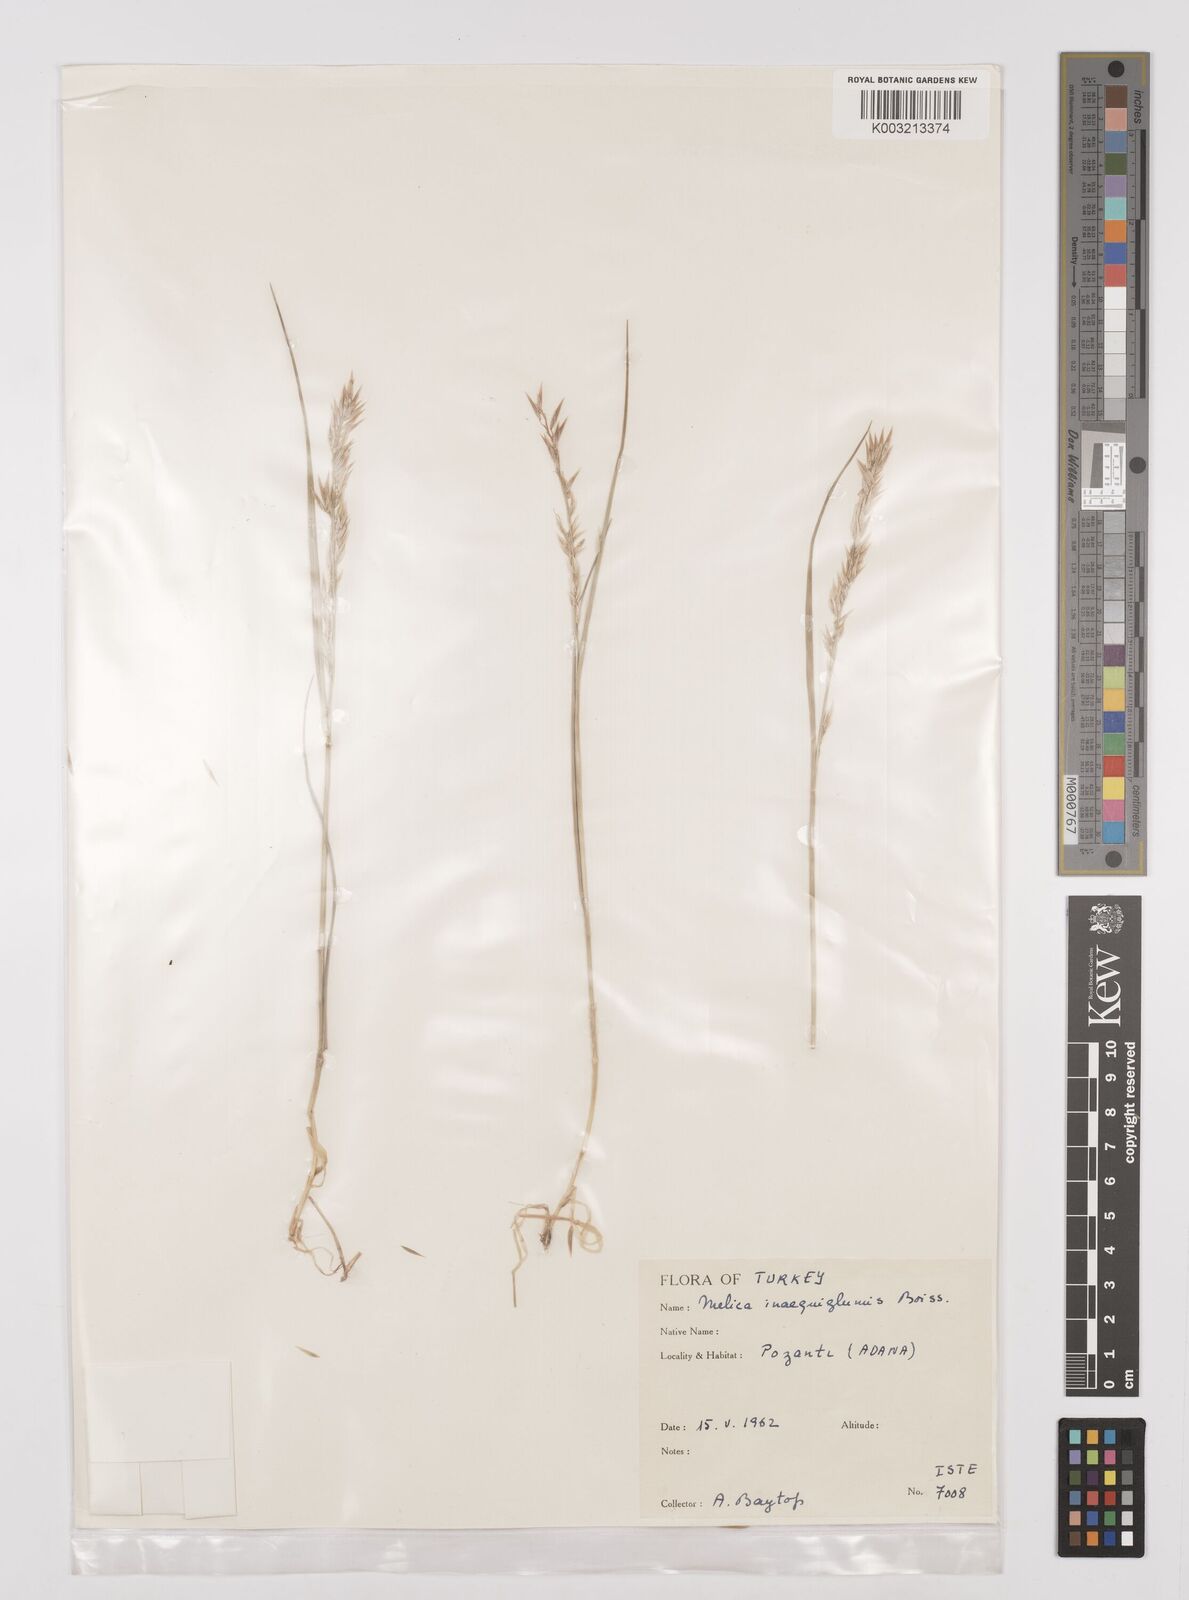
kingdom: Plantae
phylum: Tracheophyta
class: Liliopsida
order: Poales
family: Poaceae
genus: Melica
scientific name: Melica persica
